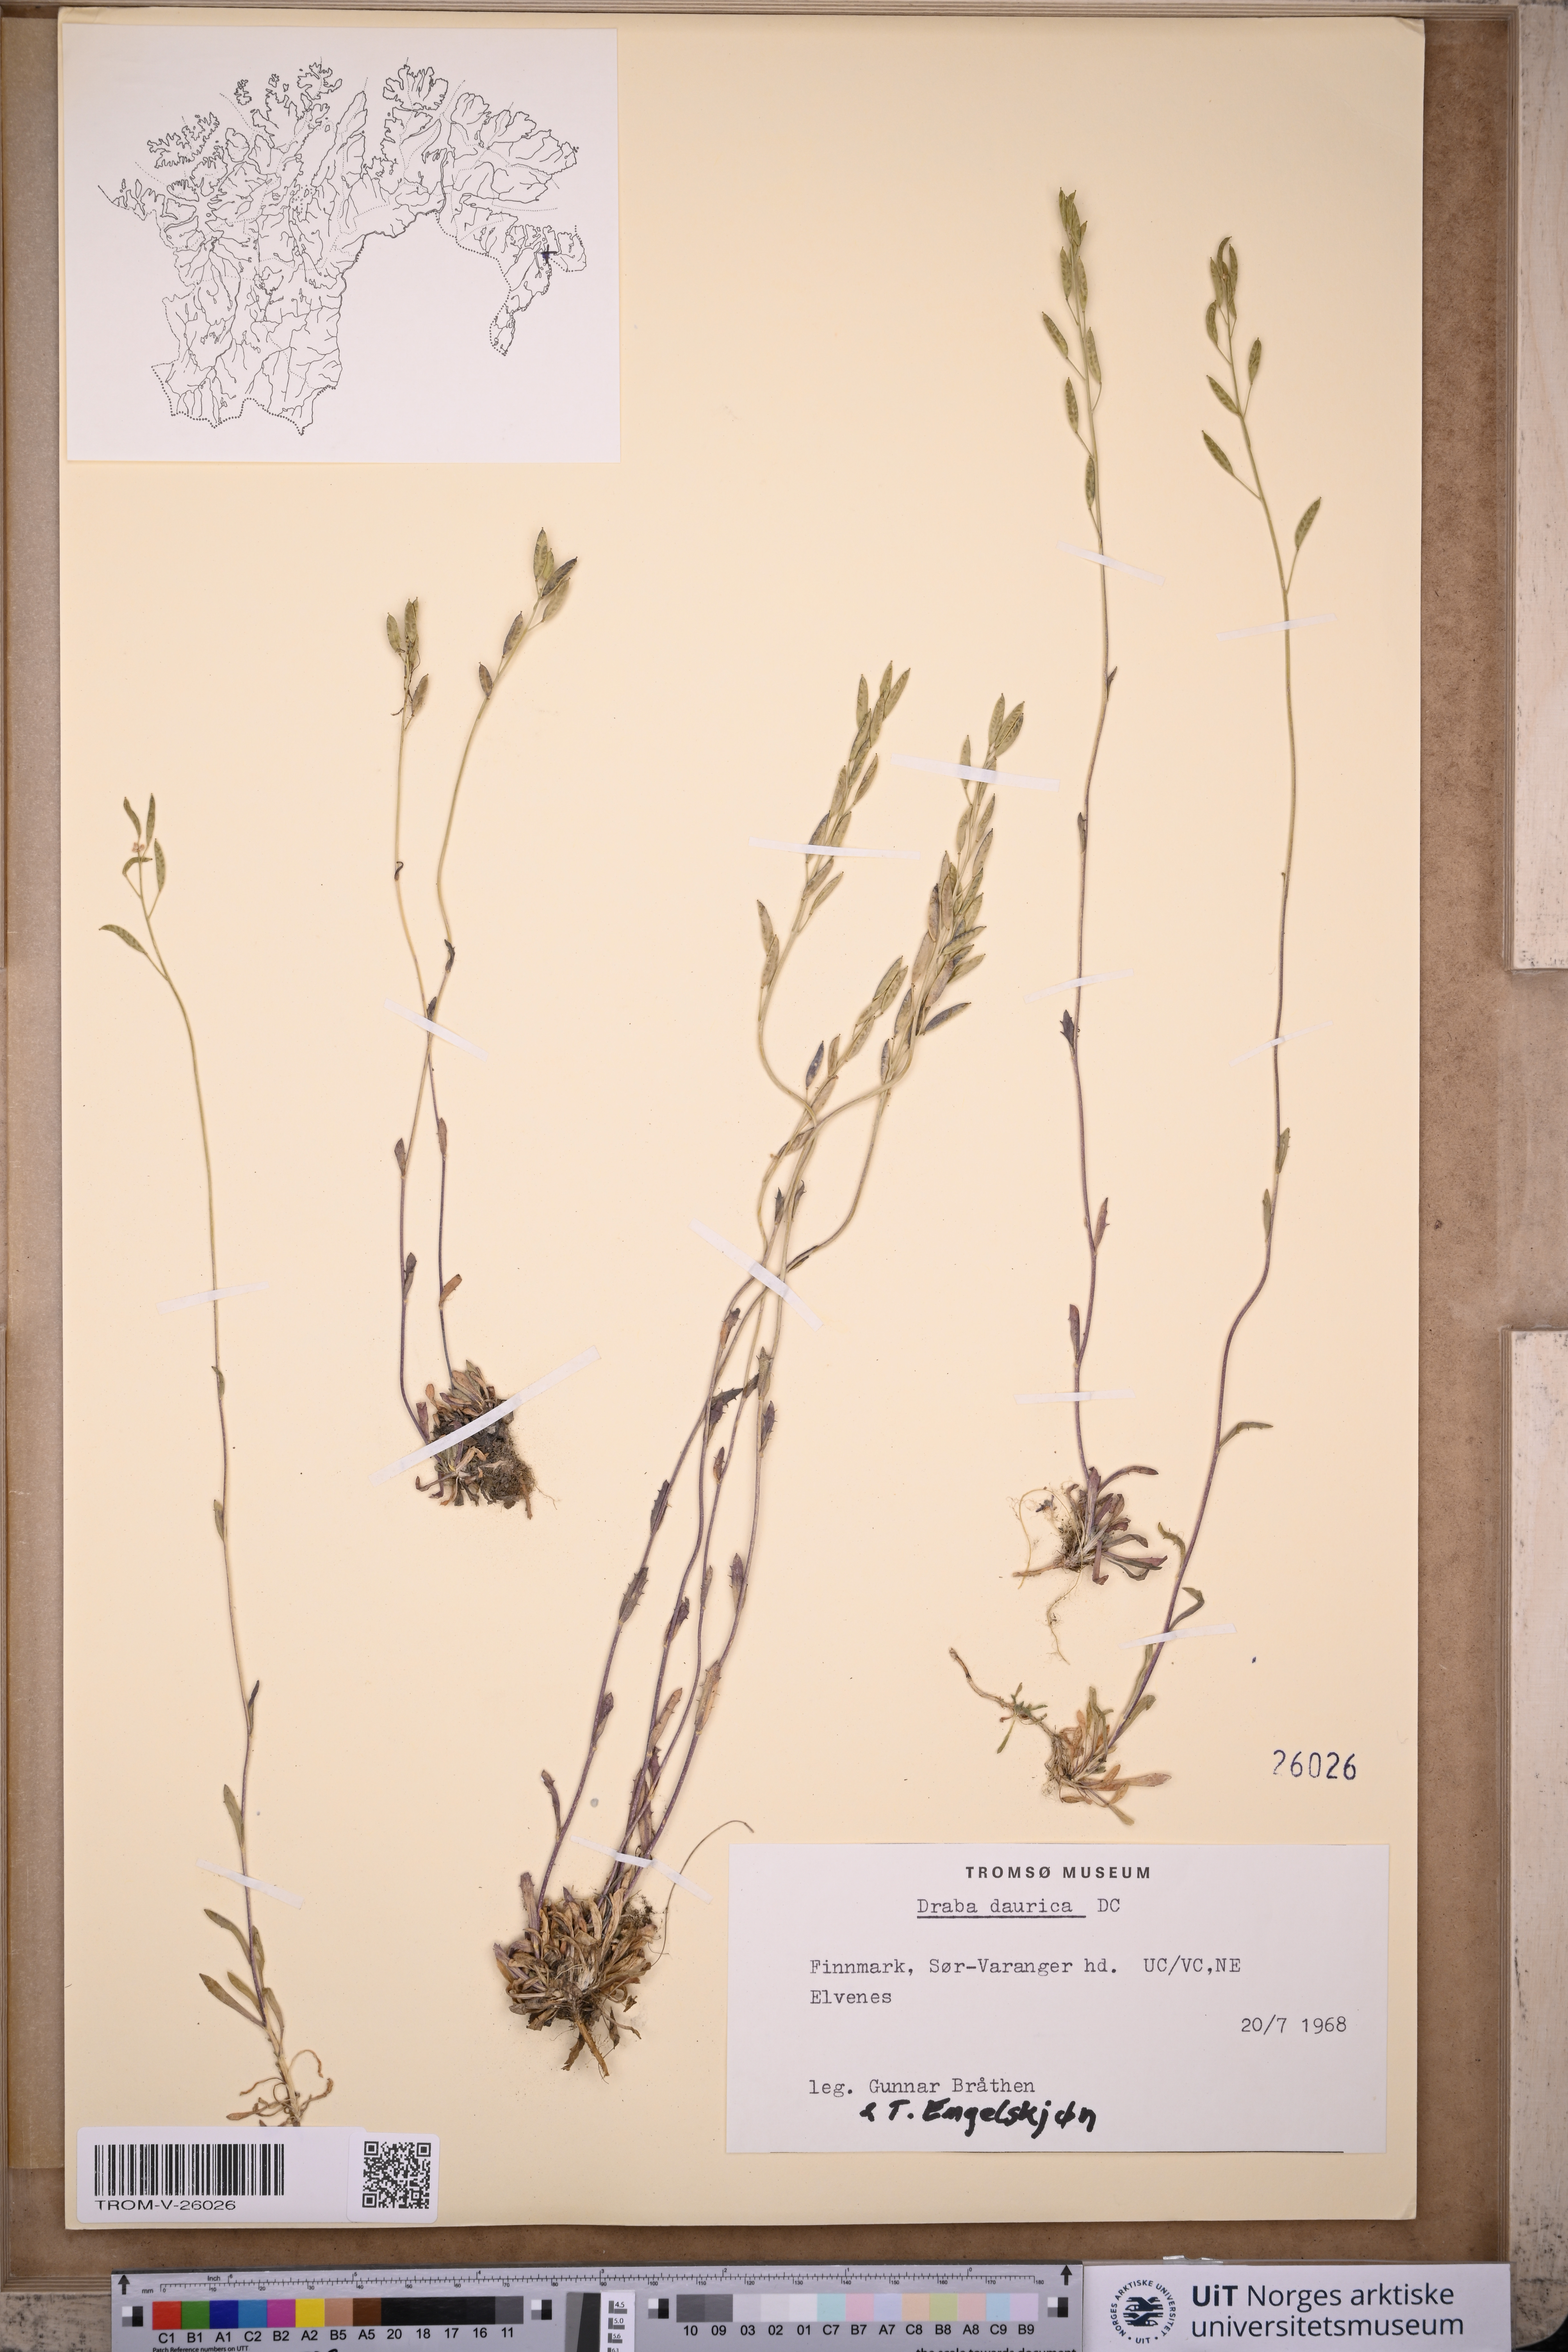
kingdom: Plantae
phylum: Tracheophyta
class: Magnoliopsida
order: Brassicales
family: Brassicaceae
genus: Draba
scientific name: Draba glabella
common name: Glaucous draba
